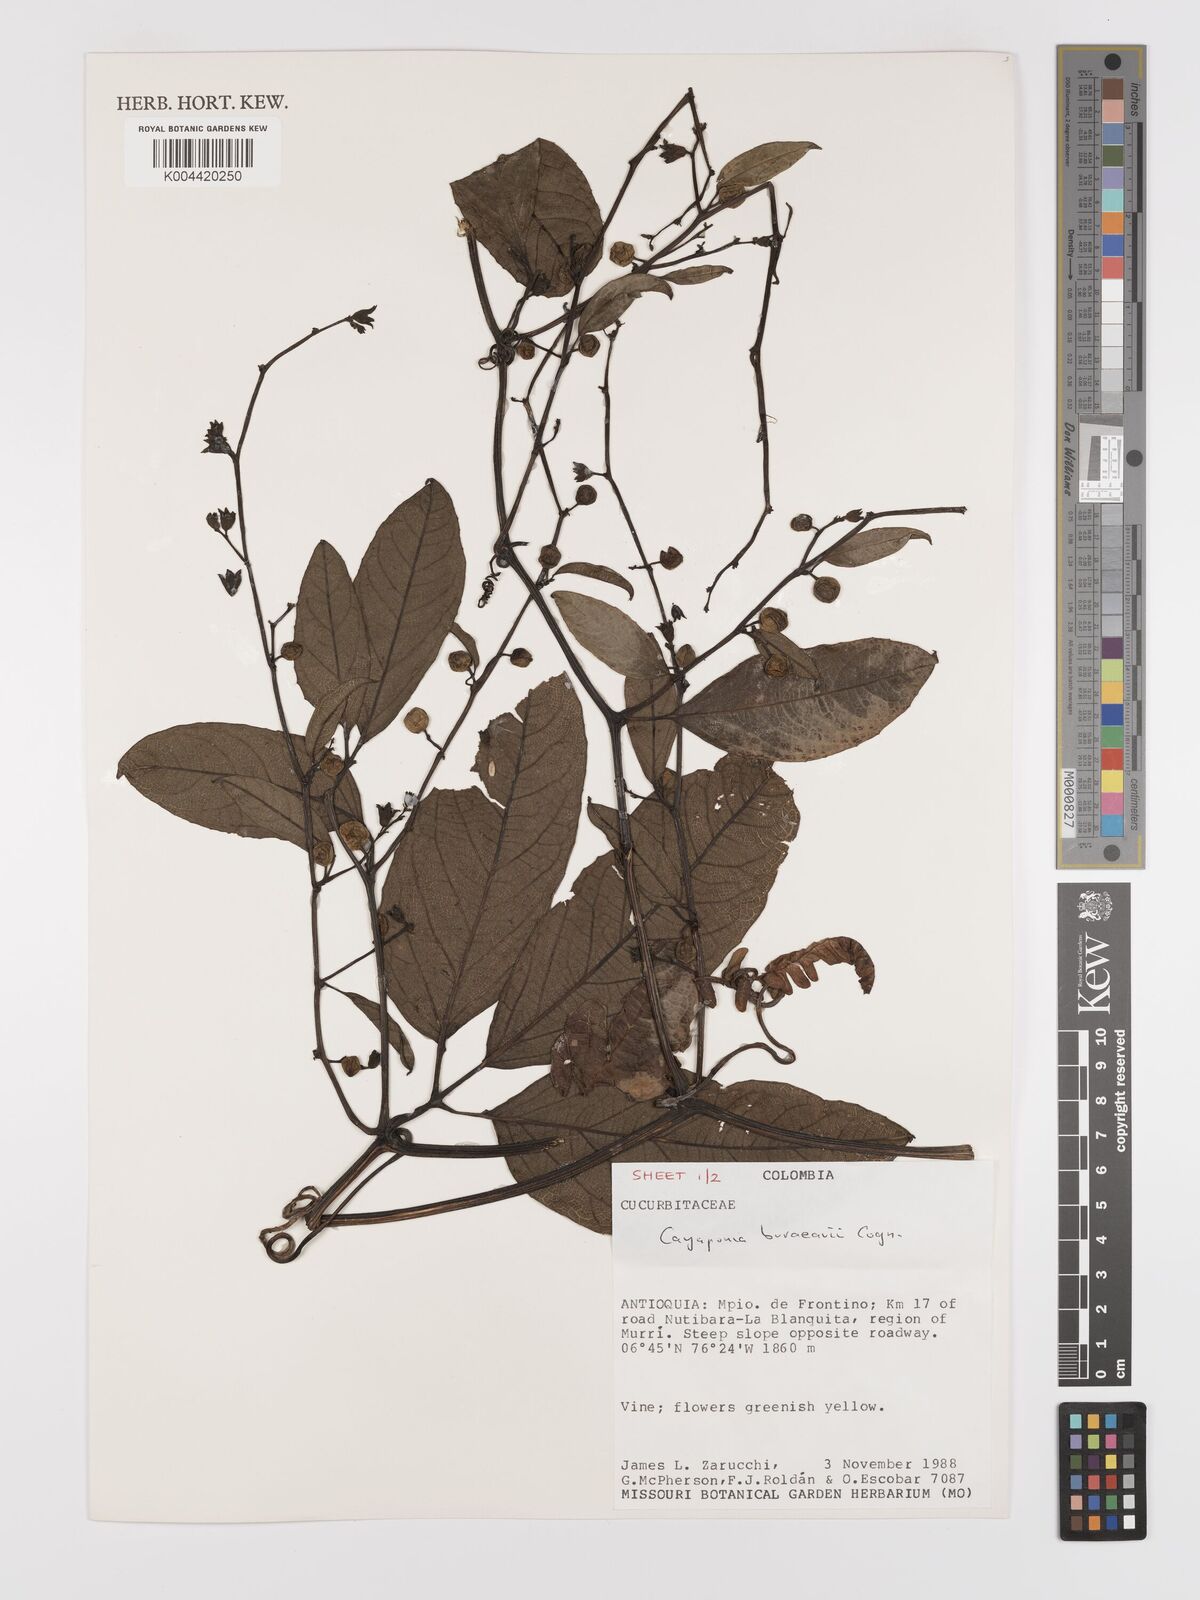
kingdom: Plantae
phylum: Tracheophyta
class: Magnoliopsida
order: Cucurbitales
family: Cucurbitaceae
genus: Cayaponia
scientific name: Cayaponia buraeavii
